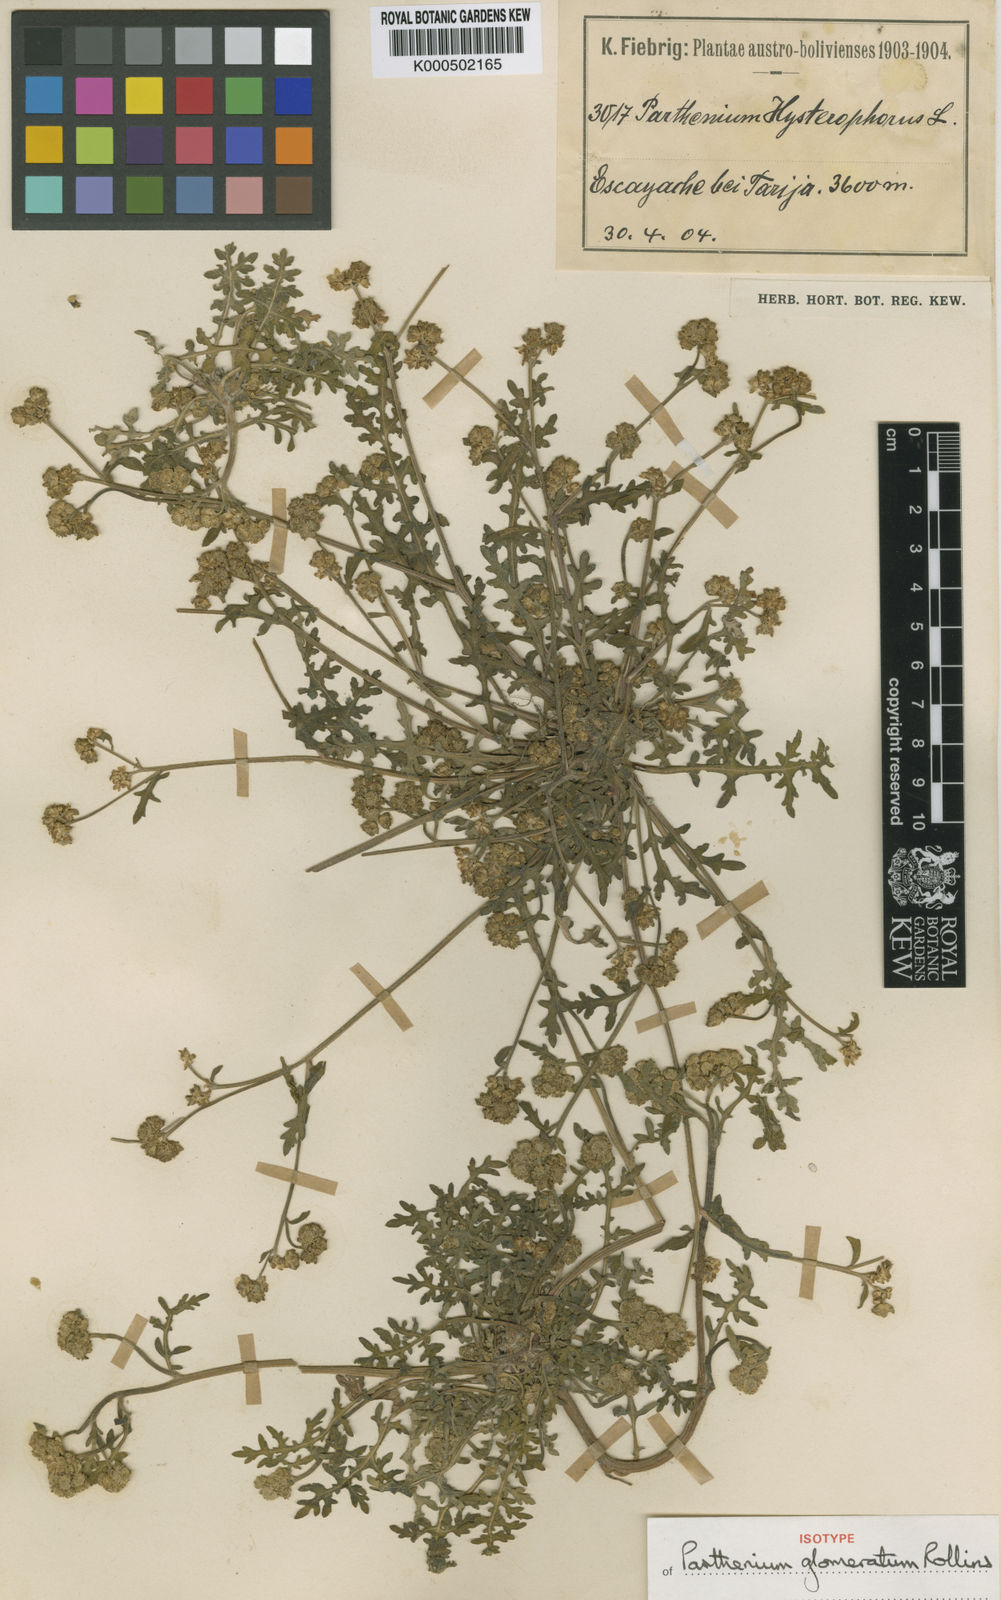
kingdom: Plantae
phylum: Tracheophyta
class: Magnoliopsida
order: Asterales
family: Asteraceae
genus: Parthenium
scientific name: Parthenium glomeratum
